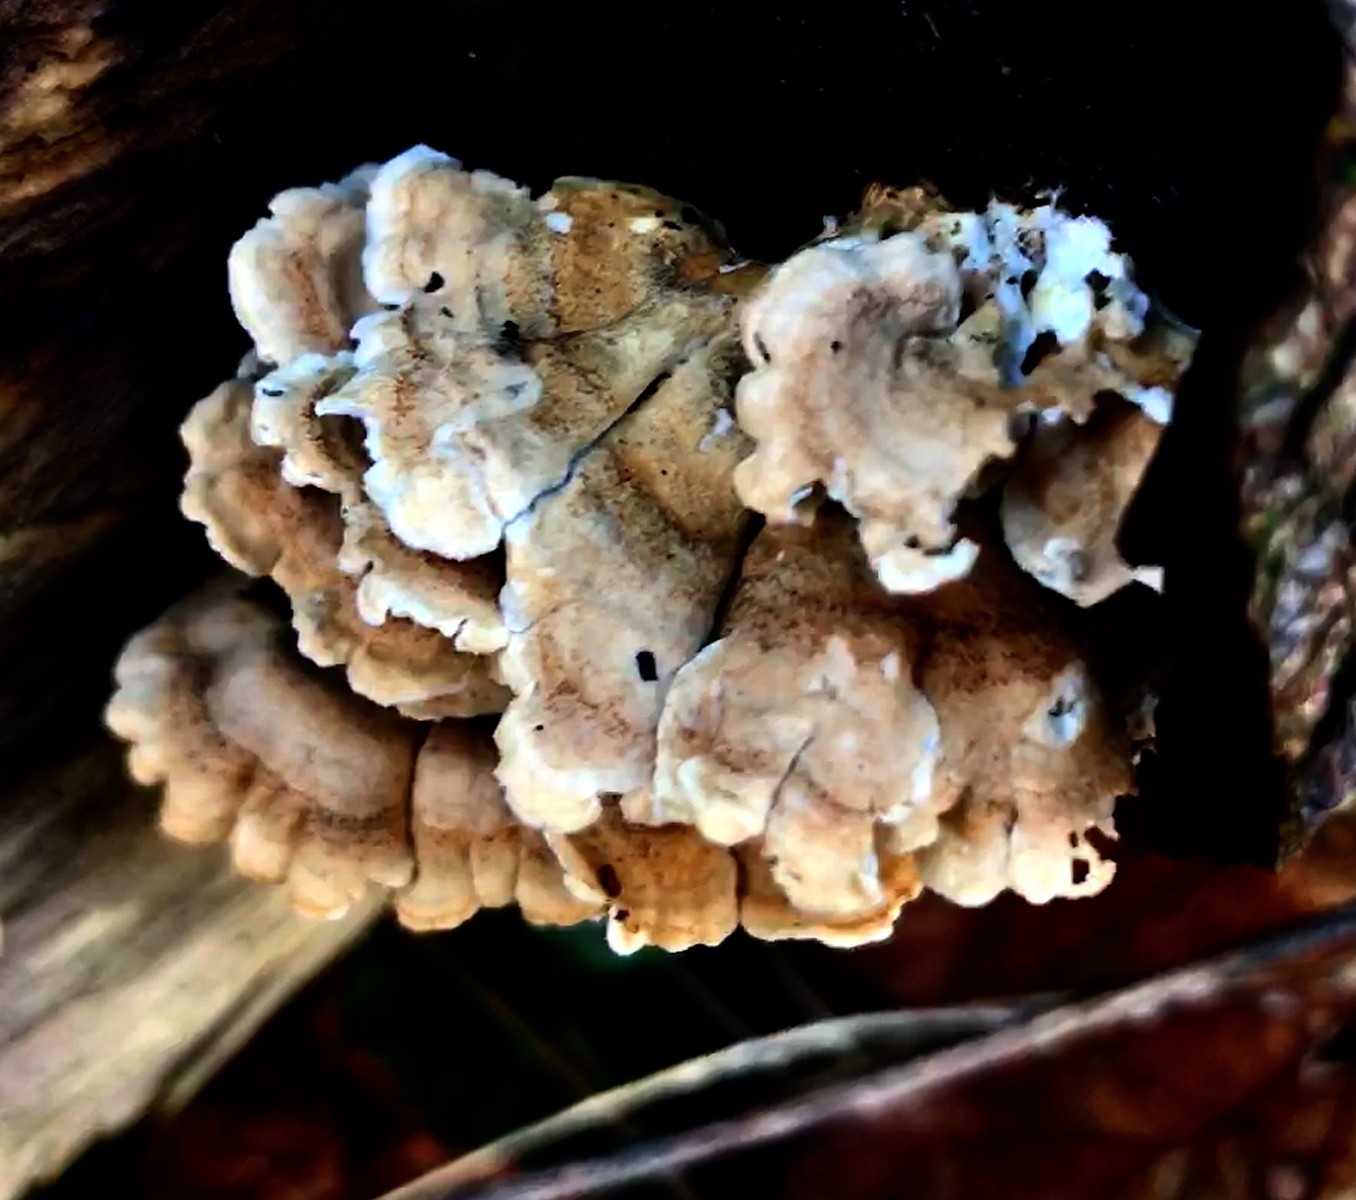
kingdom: Fungi
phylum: Basidiomycota
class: Agaricomycetes
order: Amylocorticiales
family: Amylocorticiaceae
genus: Plicaturopsis
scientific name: Plicaturopsis crispa
